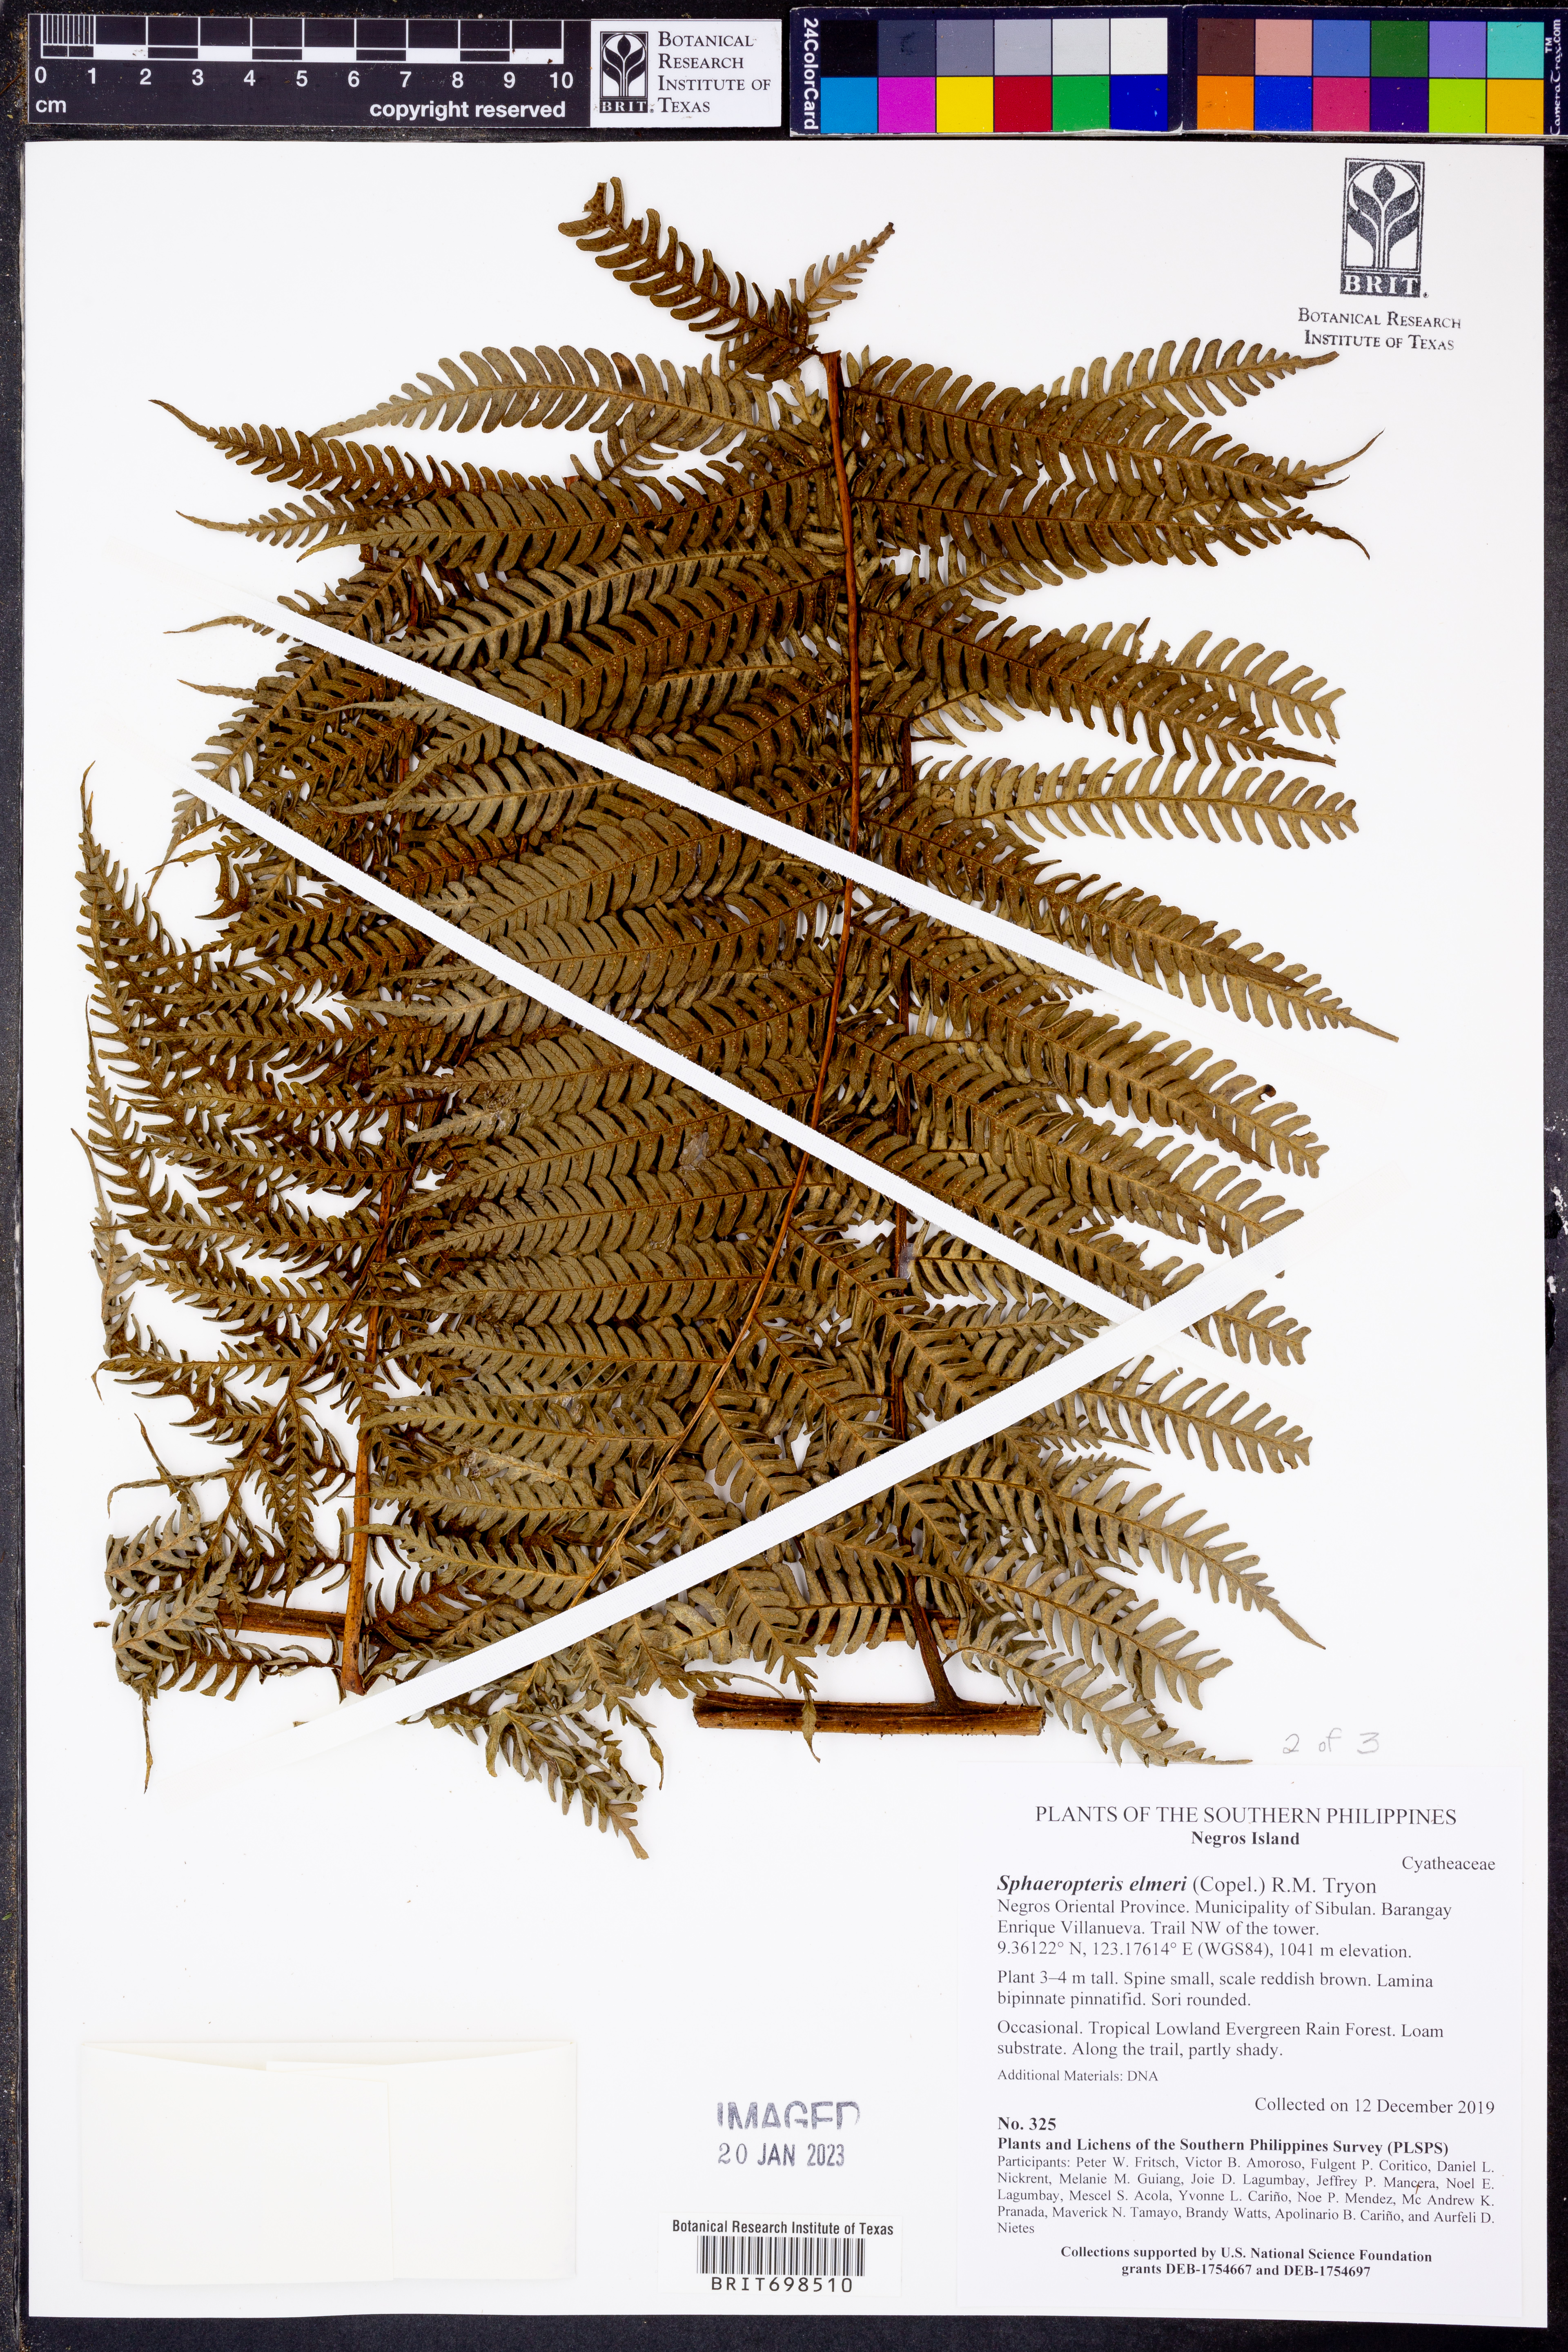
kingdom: Plantae
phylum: Tracheophyta
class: Polypodiopsida
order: Cyatheales
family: Cyatheaceae
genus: Sphaeropteris
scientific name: Sphaeropteris elmeri
